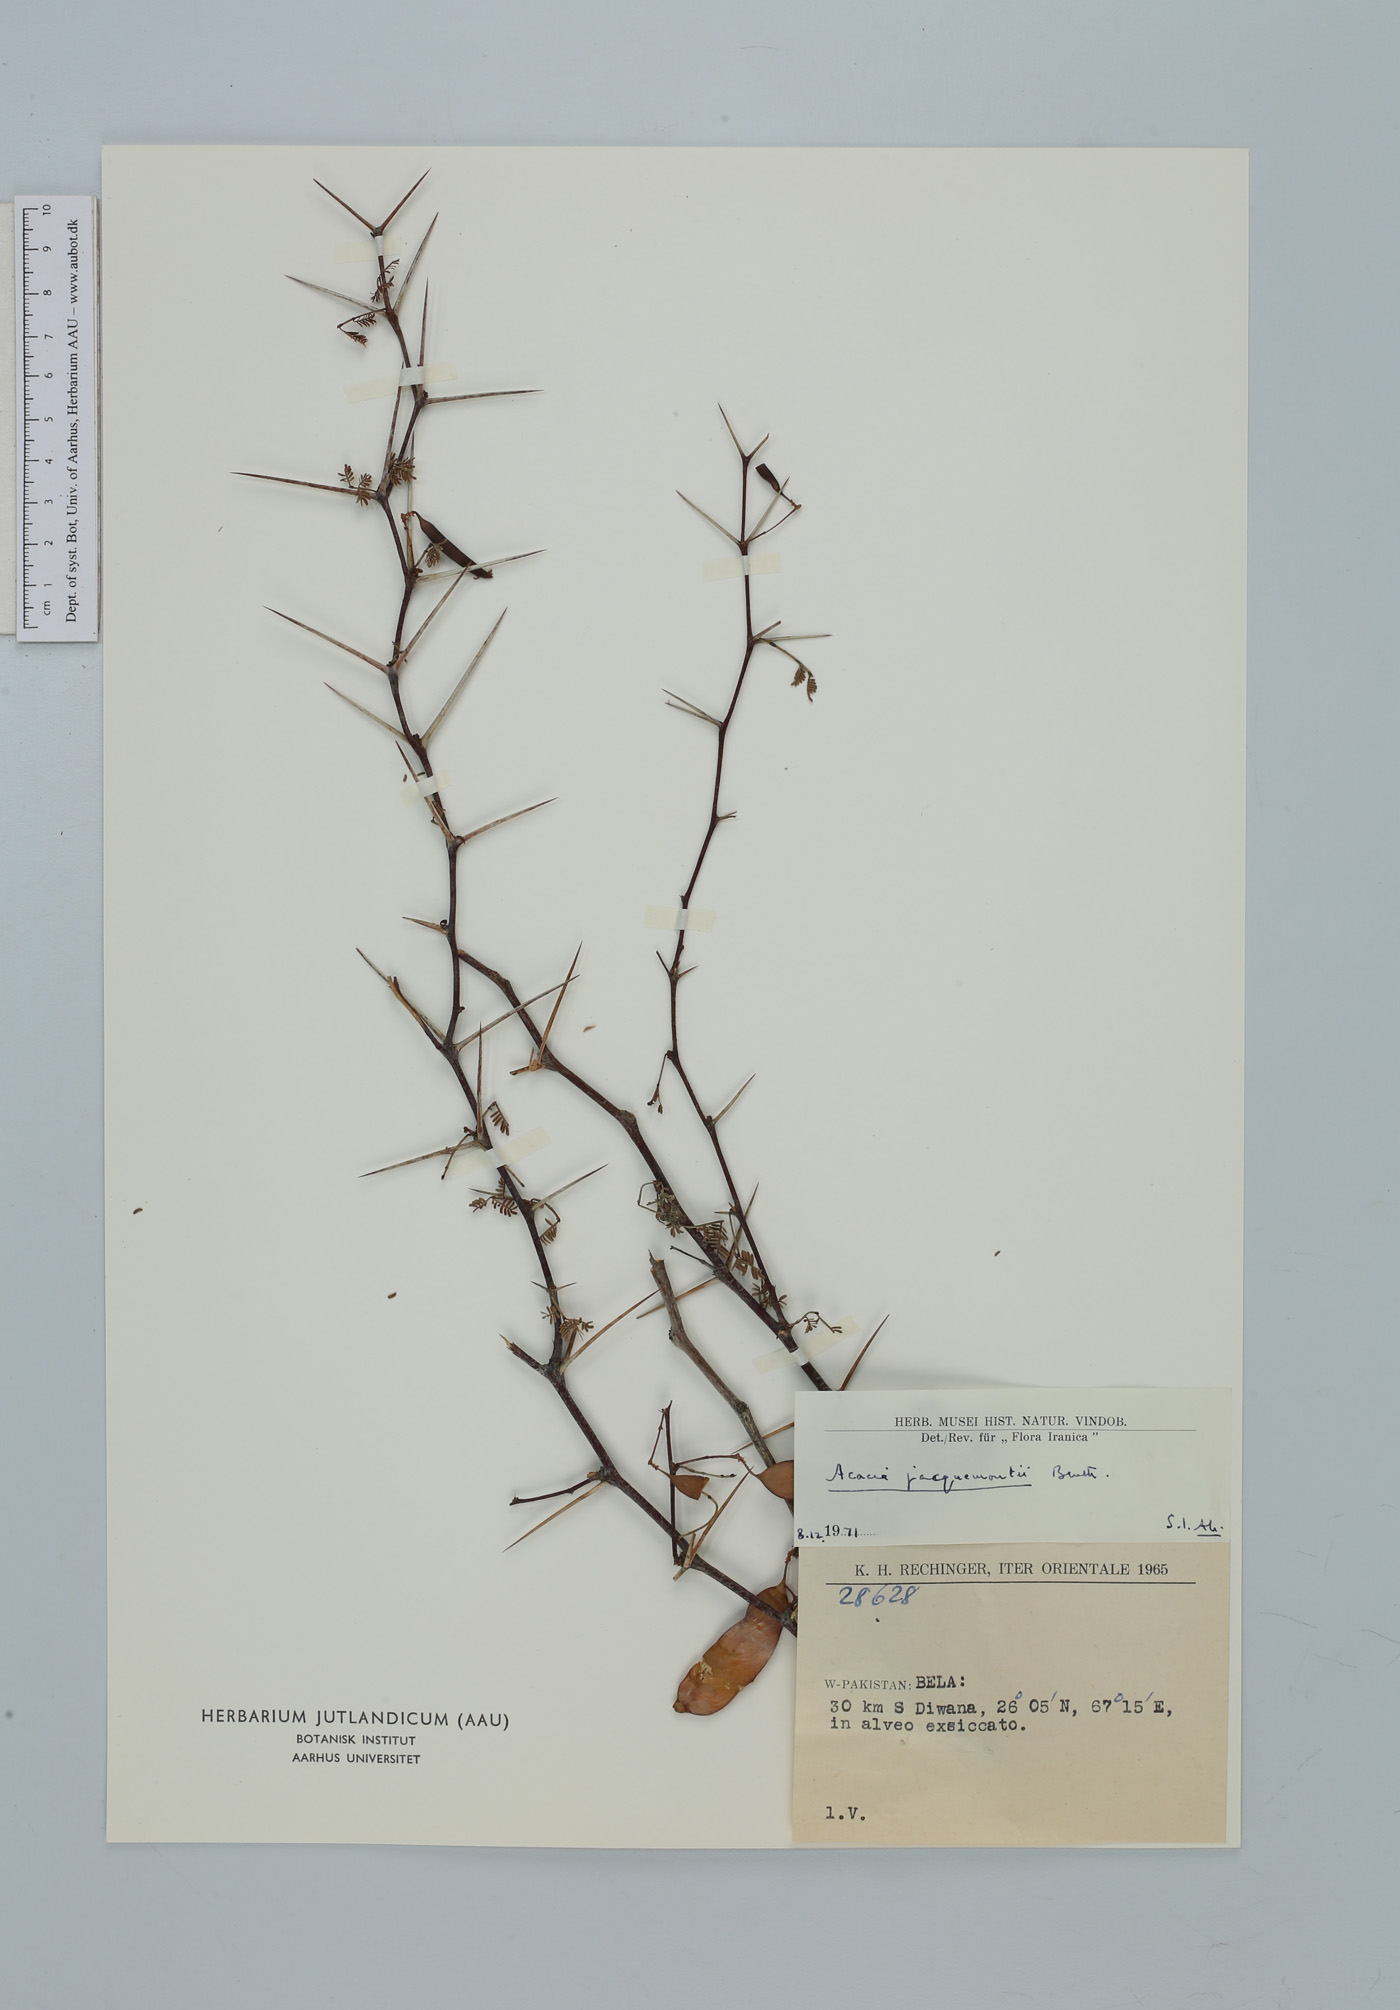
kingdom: Plantae
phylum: Tracheophyta
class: Magnoliopsida
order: Fabales
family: Fabaceae
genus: Vachellia
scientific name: Vachellia jacquemontii
